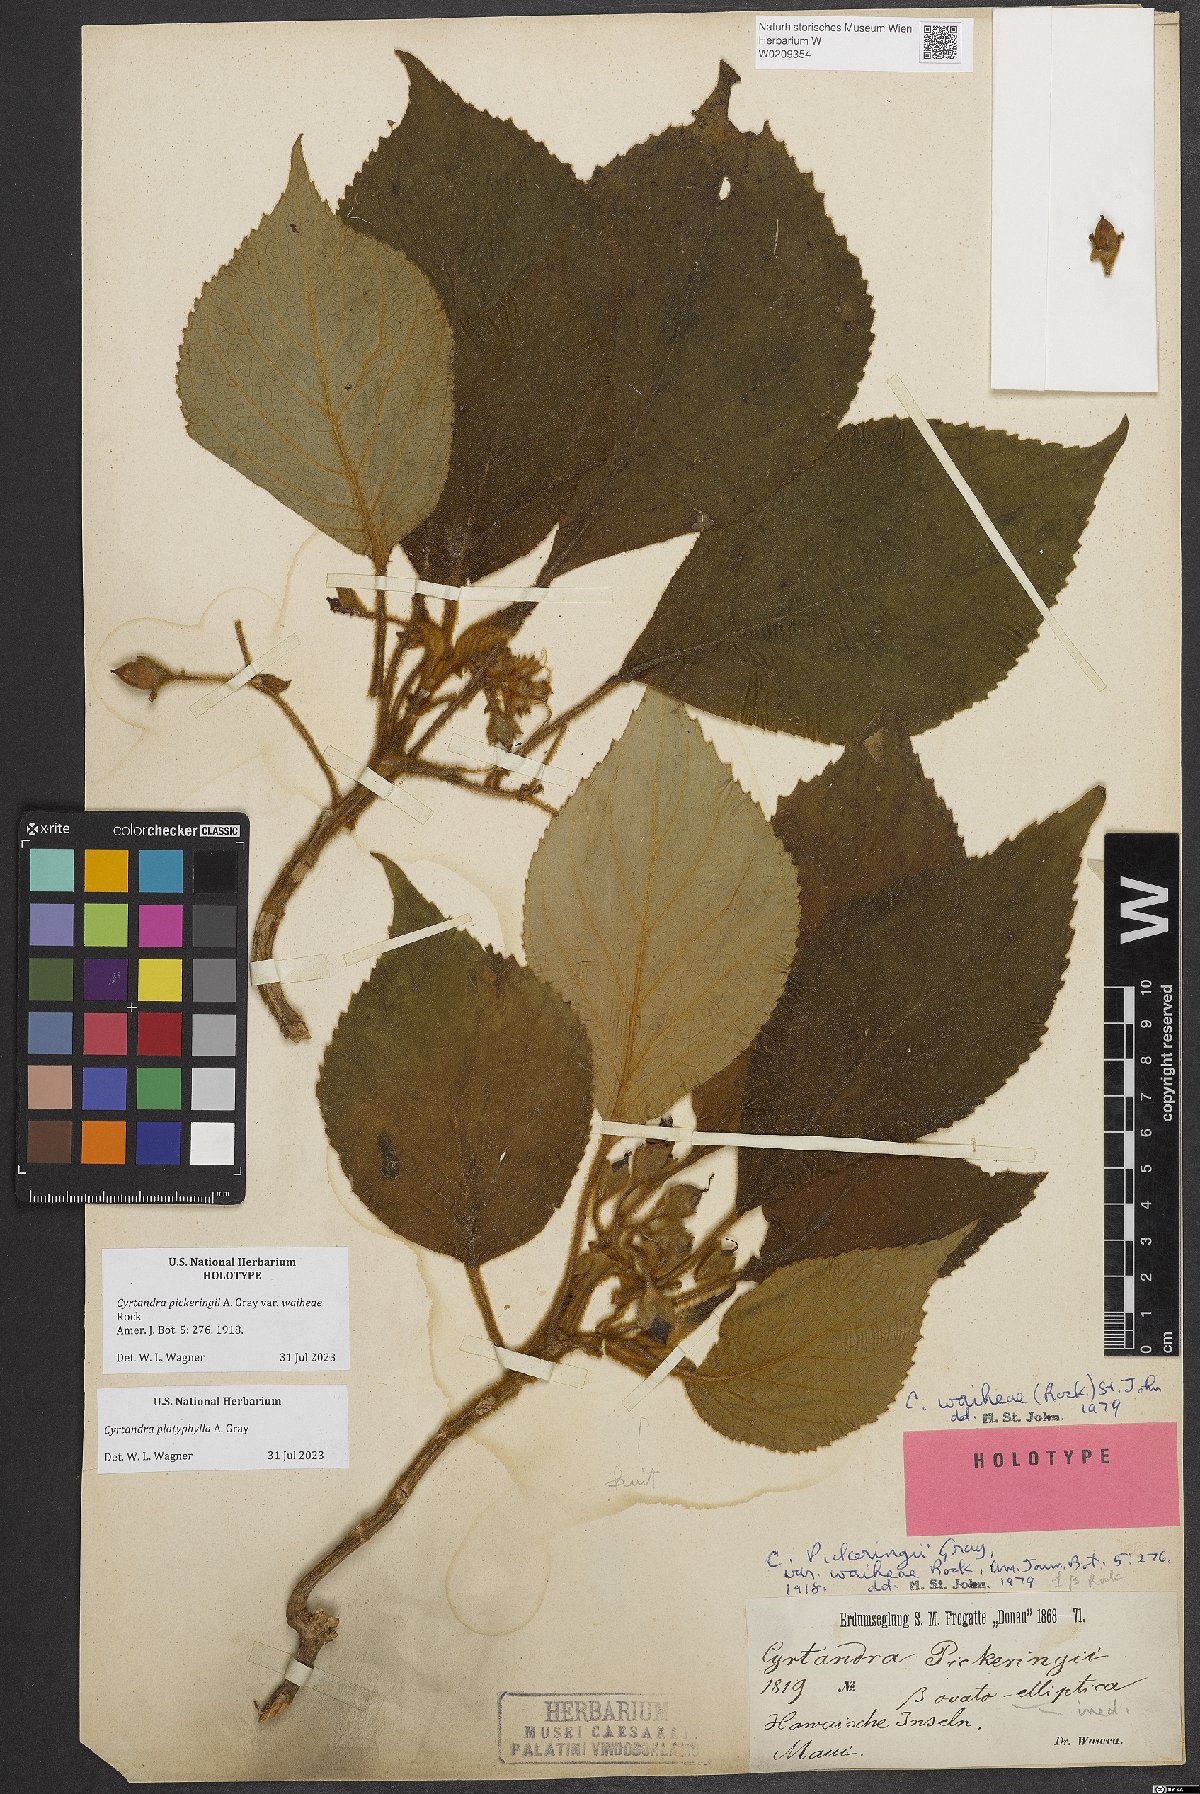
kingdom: Plantae
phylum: Tracheophyta
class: Magnoliopsida
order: Lamiales
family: Gesneriaceae
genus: Cyrtandra
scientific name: Cyrtandra platyphylla
